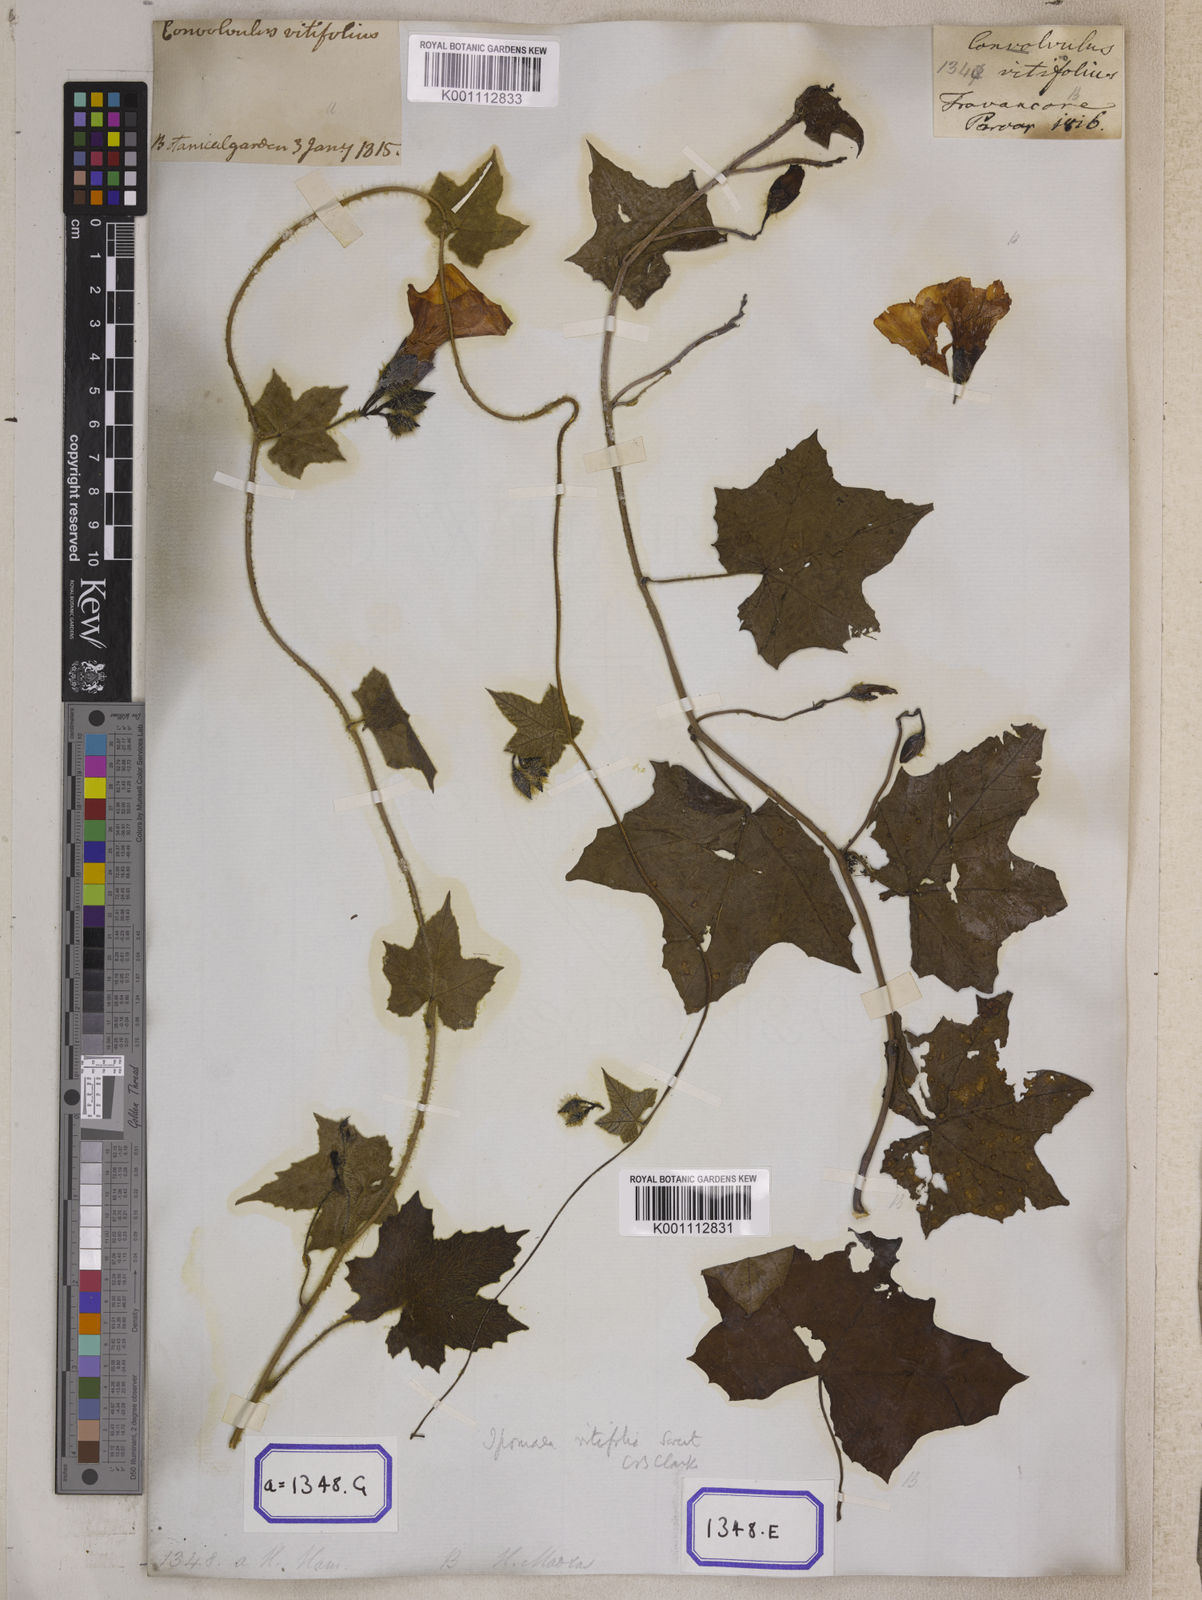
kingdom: Plantae
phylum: Tracheophyta
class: Magnoliopsida
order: Solanales
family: Convolvulaceae
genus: Convolvulus
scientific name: Convolvulus
